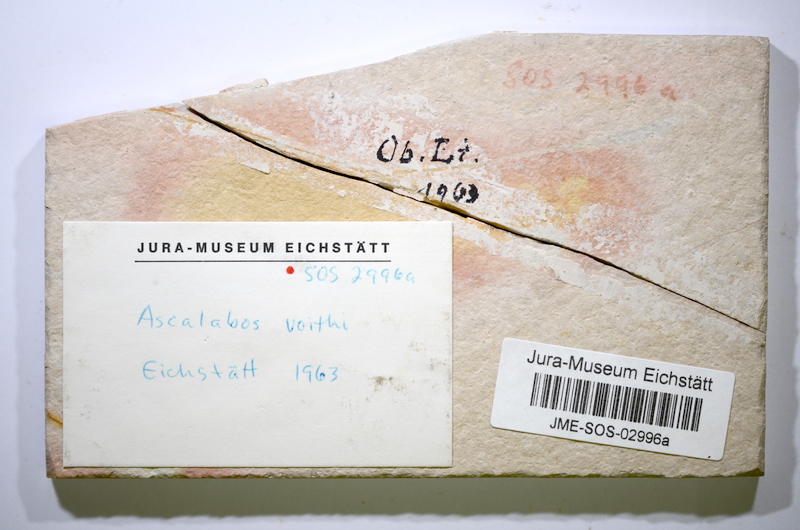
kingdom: Animalia
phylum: Chordata
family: Ascalaboidae
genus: Ascalabos
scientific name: Ascalabos voithii
